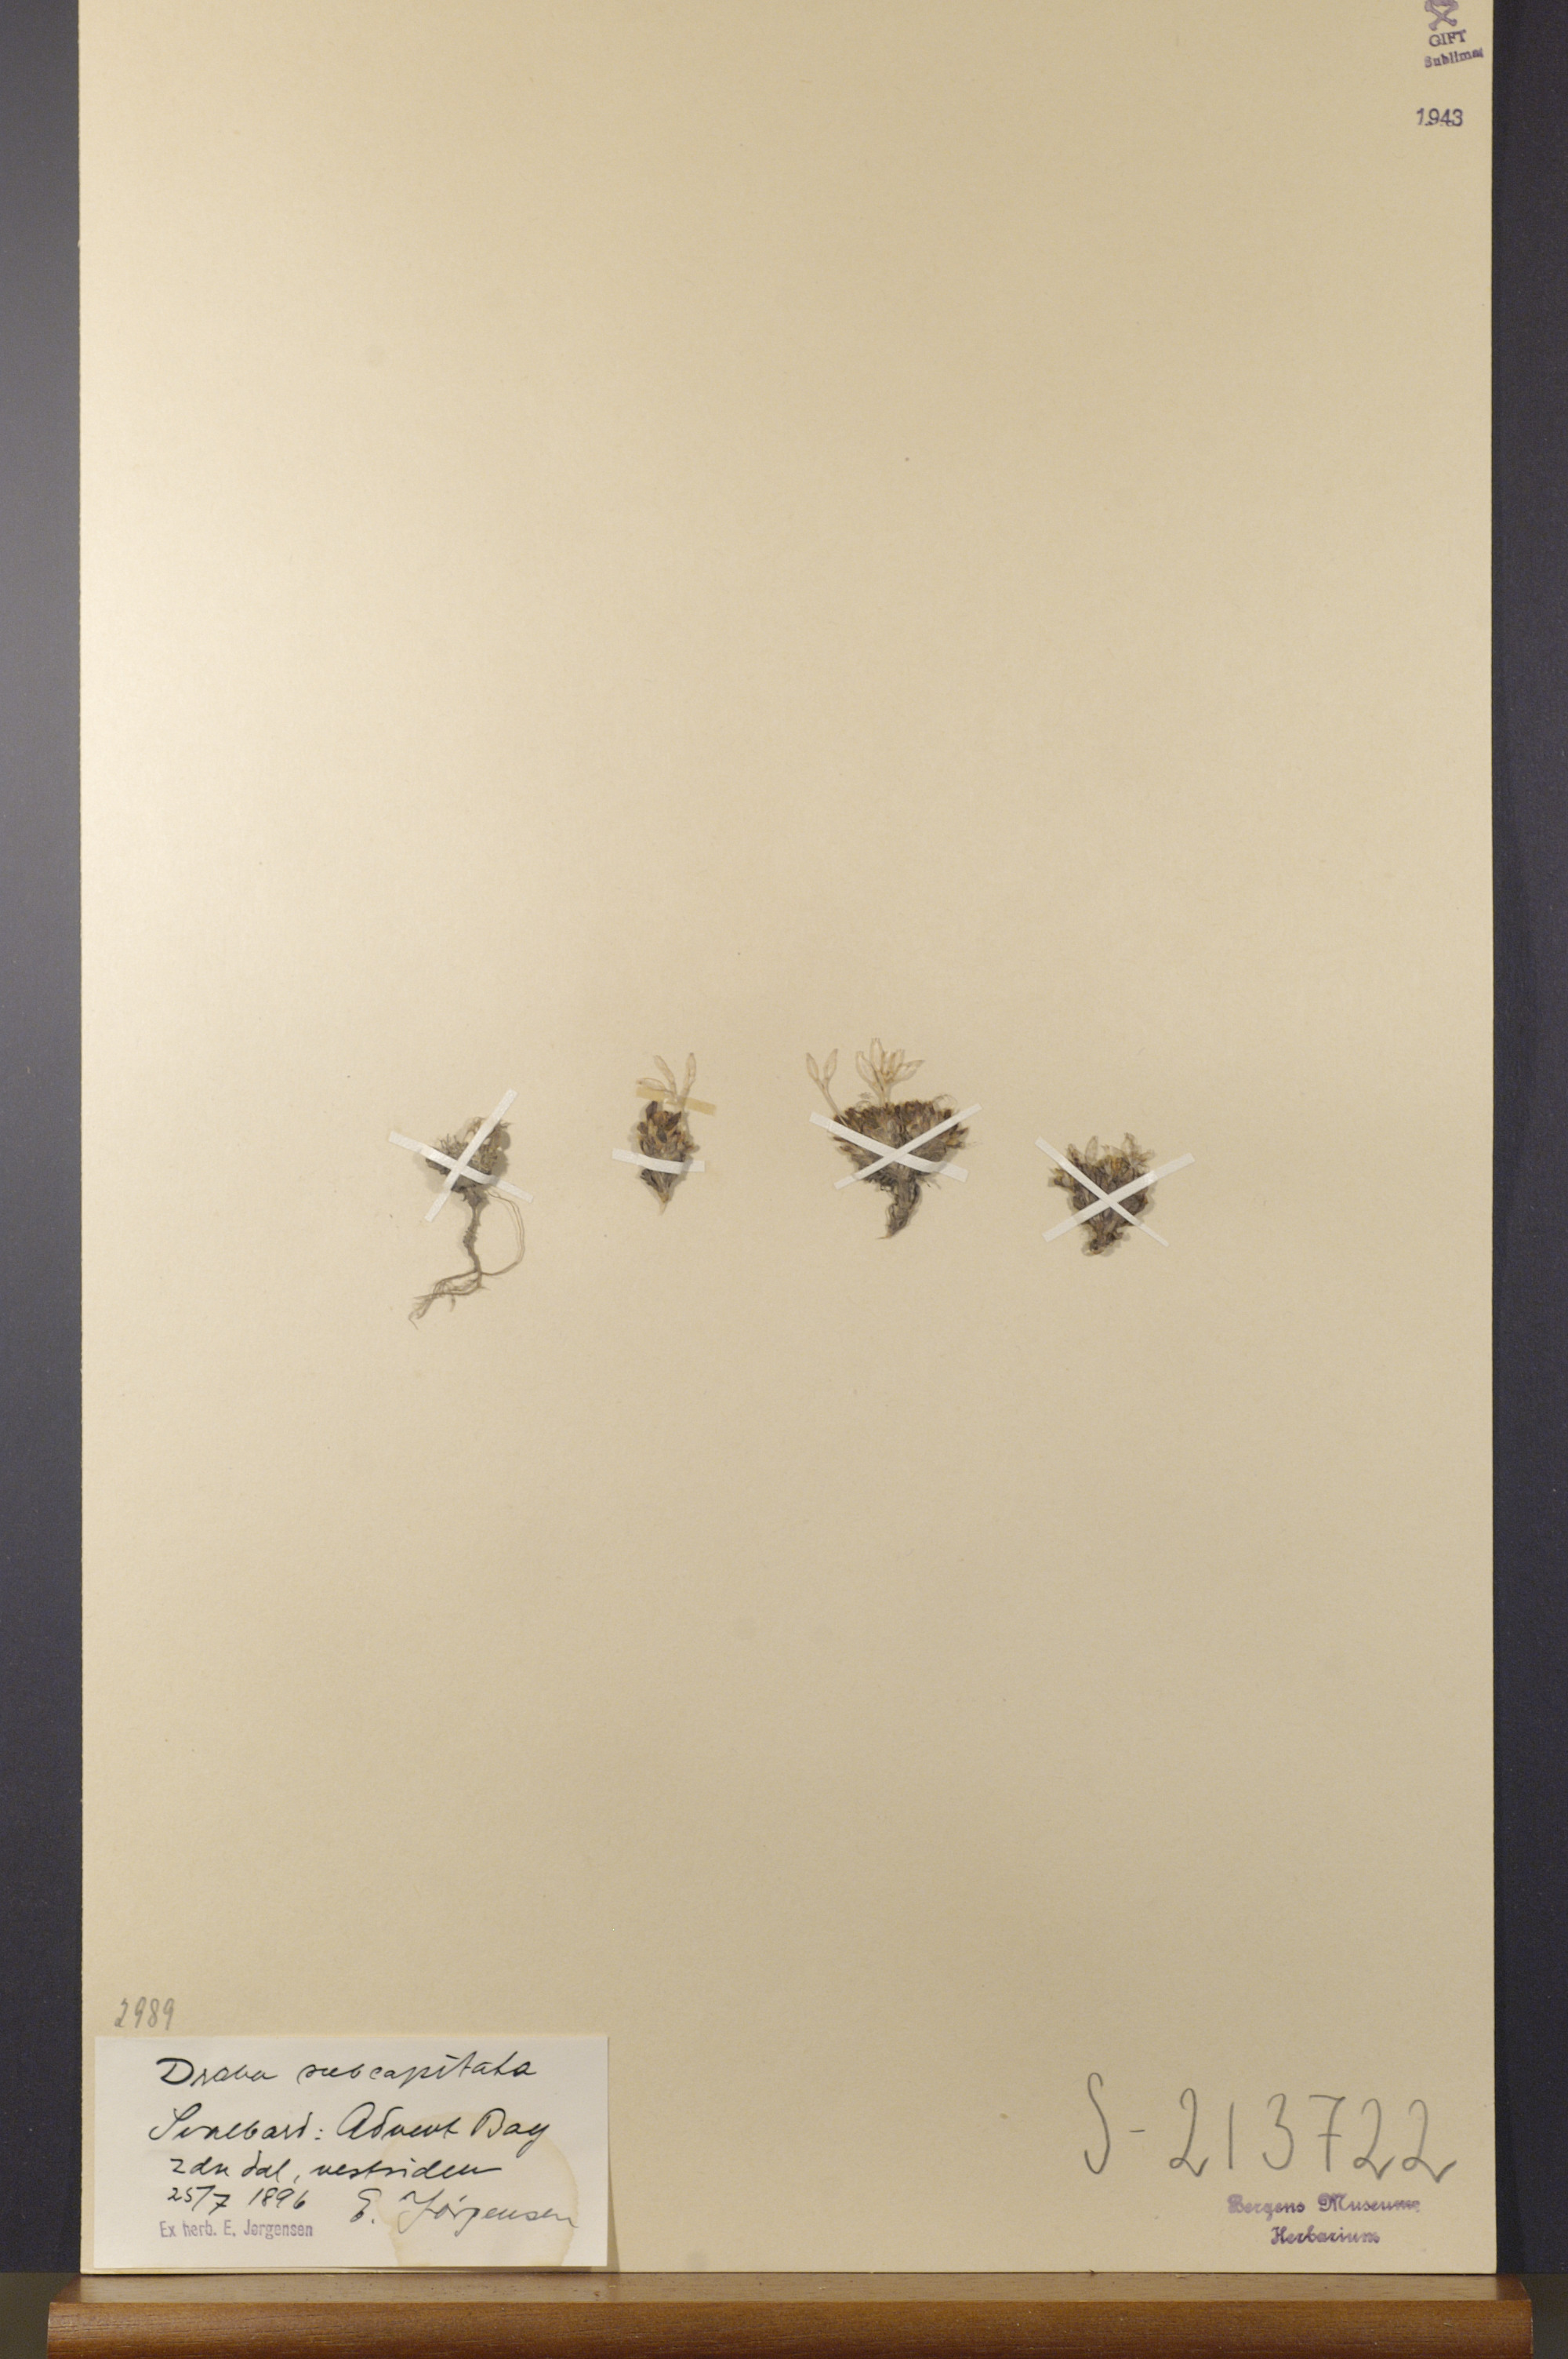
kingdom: Plantae
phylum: Tracheophyta
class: Magnoliopsida
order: Brassicales
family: Brassicaceae
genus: Draba
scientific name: Draba subcapitata
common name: Ellesmere island draba
